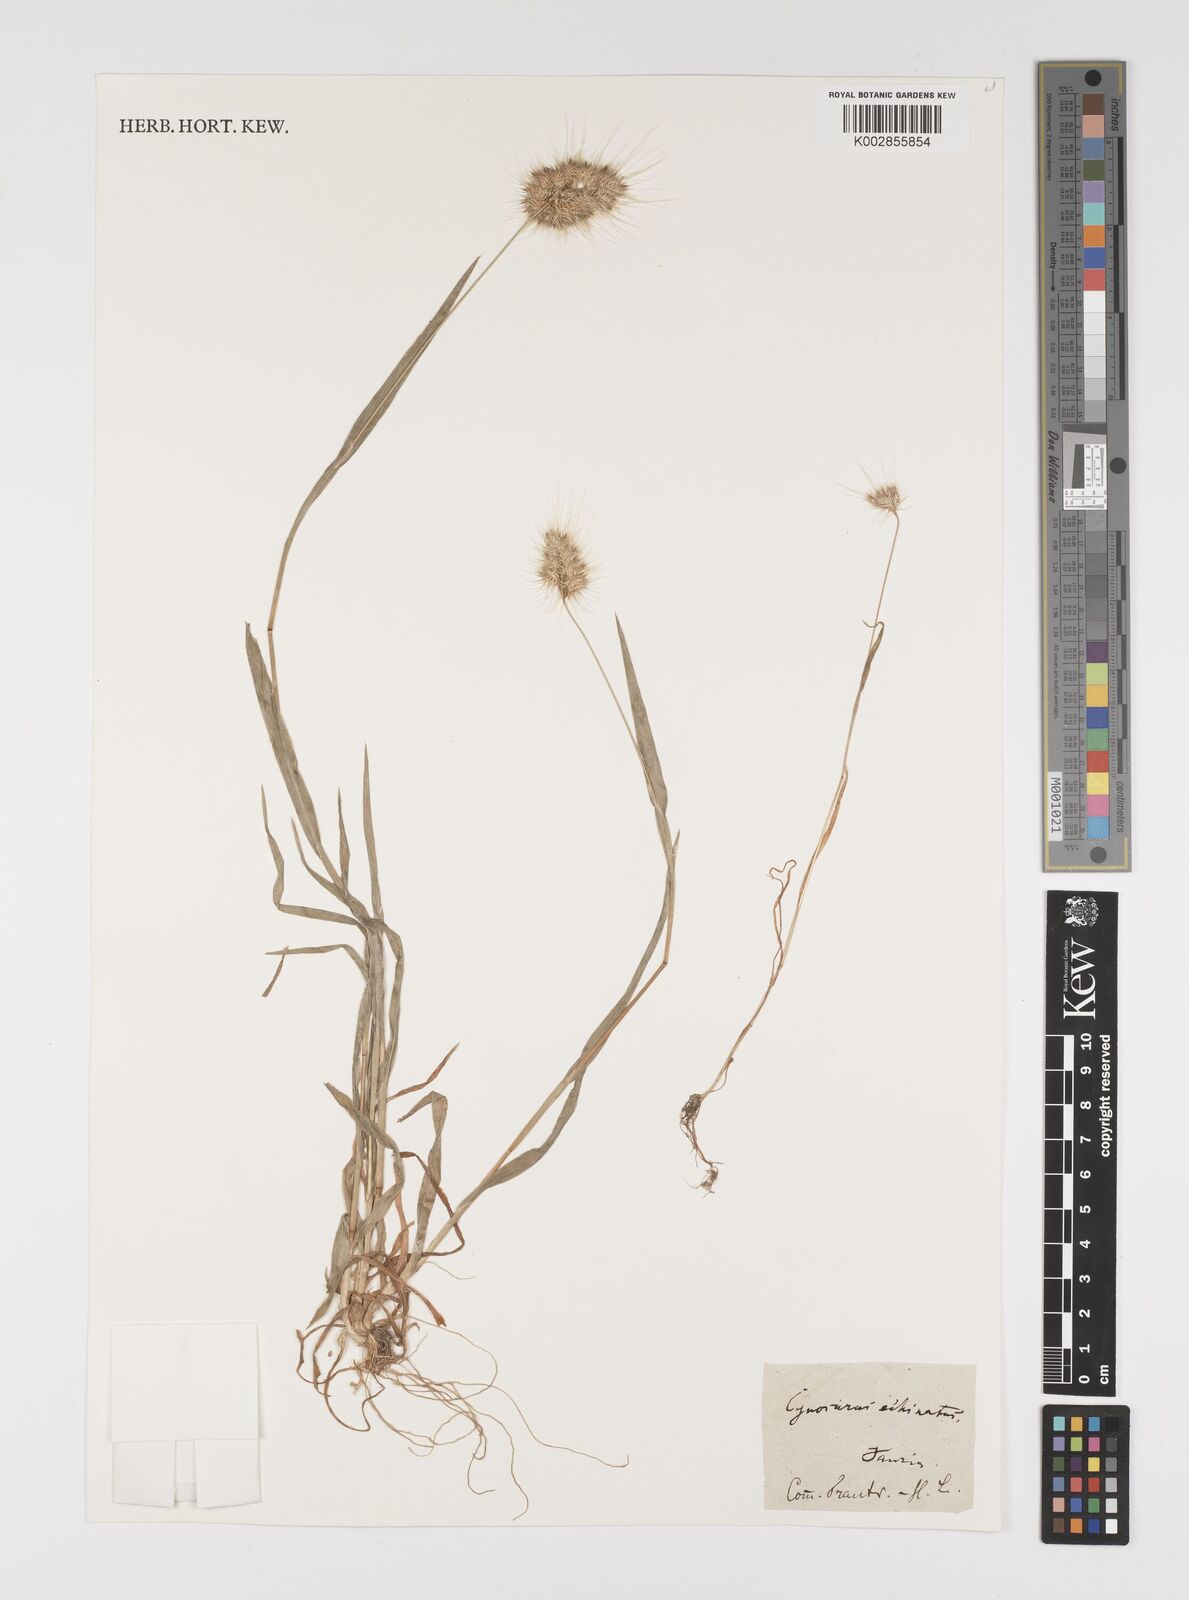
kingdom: Plantae
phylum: Tracheophyta
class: Liliopsida
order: Poales
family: Poaceae
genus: Cynosurus
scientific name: Cynosurus echinatus
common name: Rough dog's-tail
